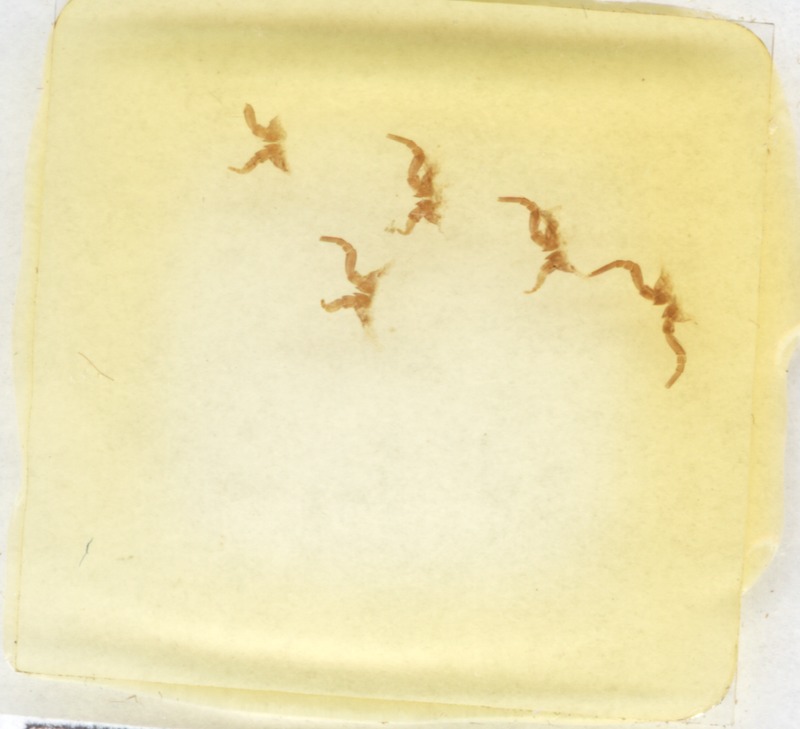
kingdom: Animalia
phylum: Arthropoda
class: Diplopoda
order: Glomerida
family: Glomeridae
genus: Glomeris
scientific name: Glomeris hexasticha
